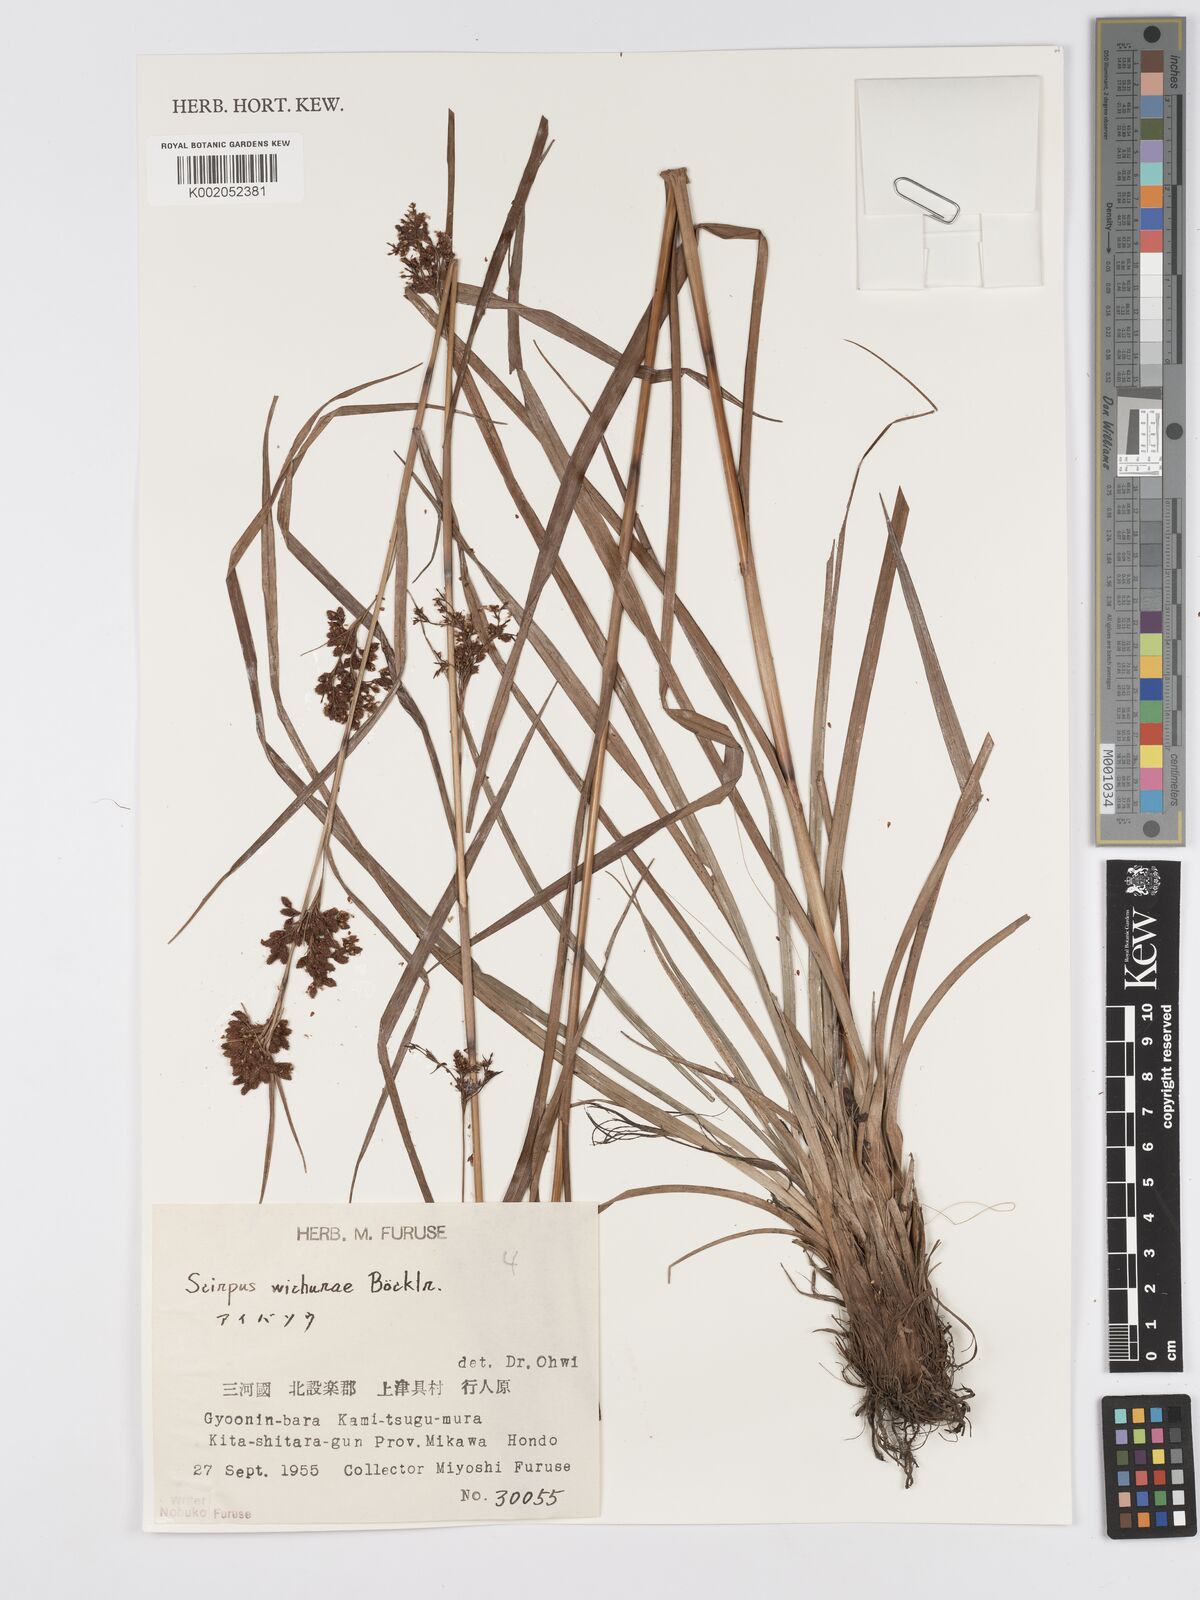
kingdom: Plantae
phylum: Tracheophyta
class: Liliopsida
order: Poales
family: Cyperaceae
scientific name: Cyperaceae
